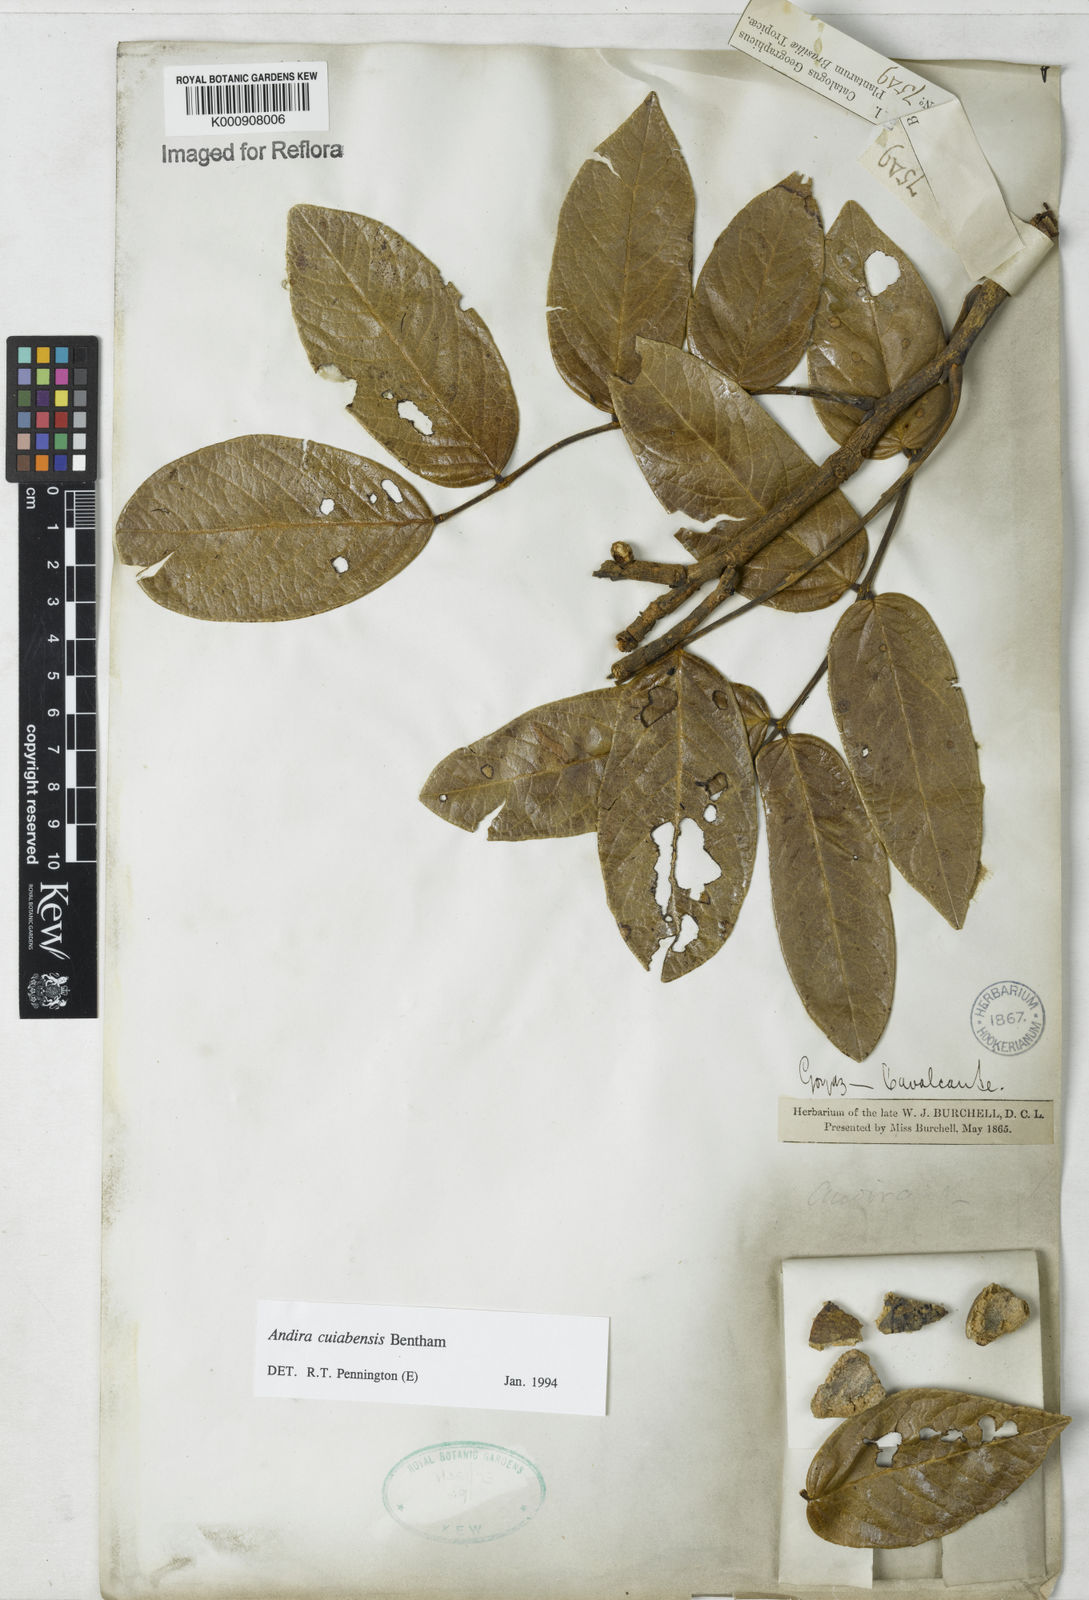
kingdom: Plantae
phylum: Tracheophyta
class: Magnoliopsida
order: Fabales
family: Fabaceae
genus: Andira
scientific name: Andira cujabensis
